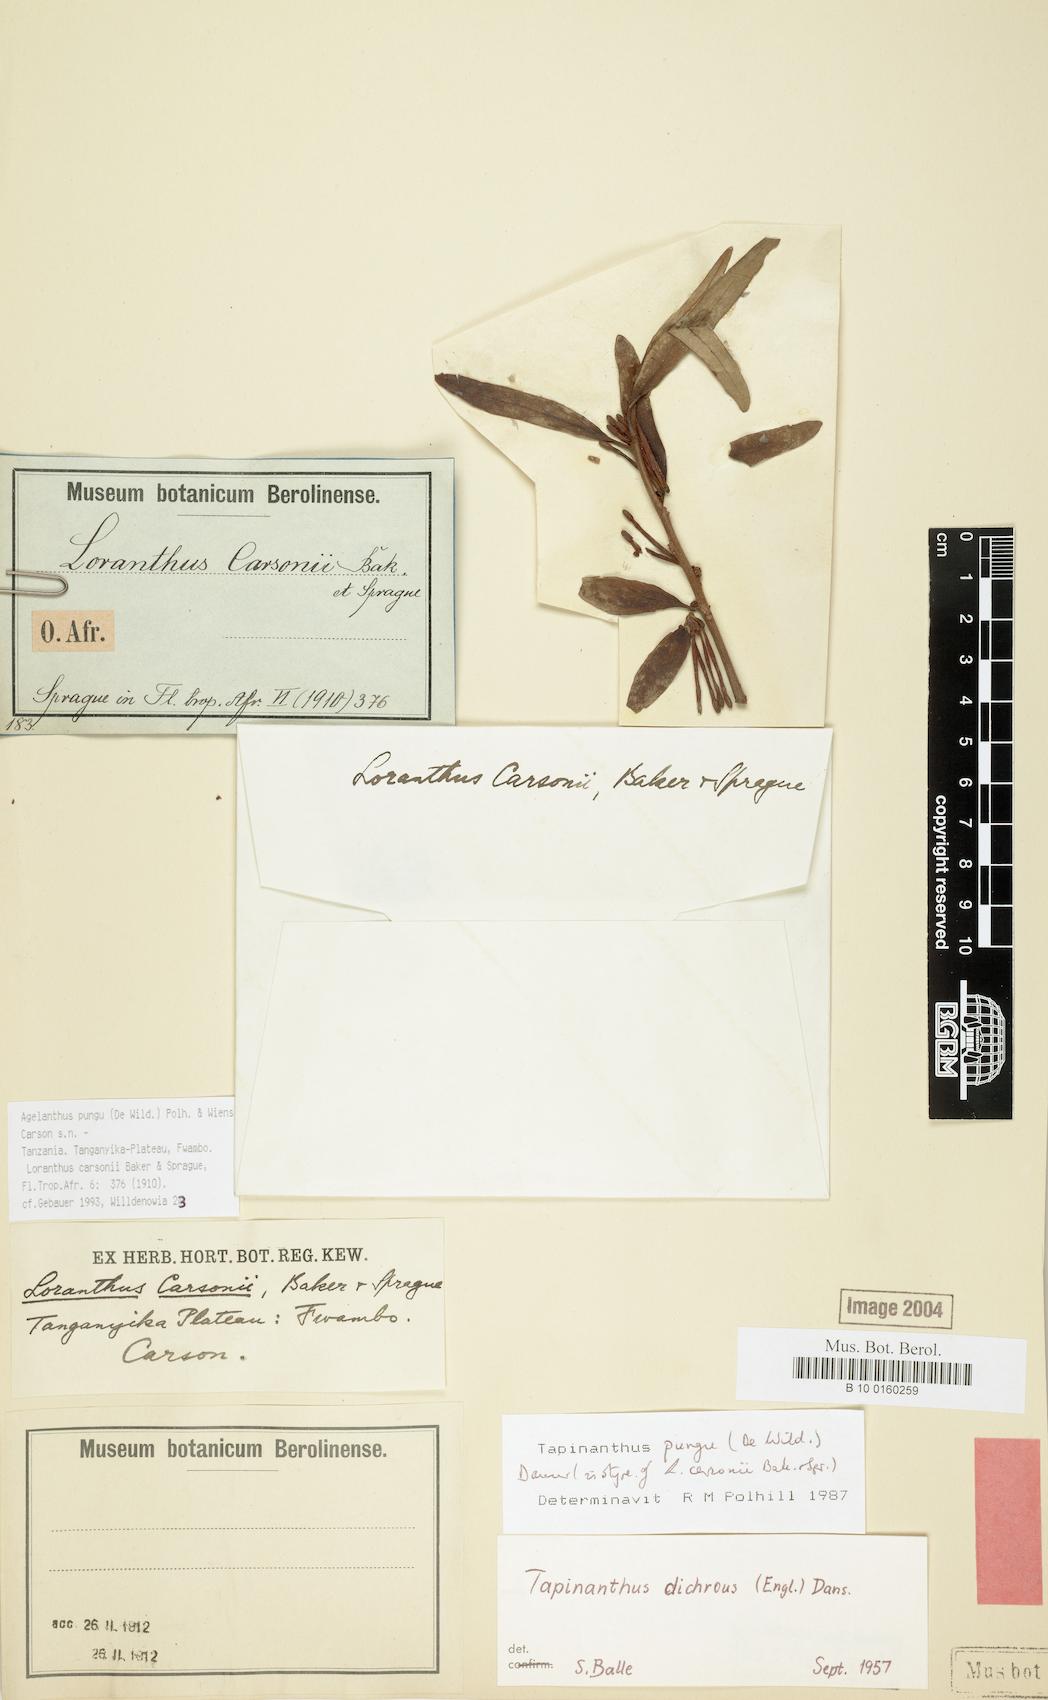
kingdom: Plantae
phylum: Tracheophyta
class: Magnoliopsida
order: Santalales
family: Loranthaceae
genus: Agelanthus
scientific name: Agelanthus pungu
